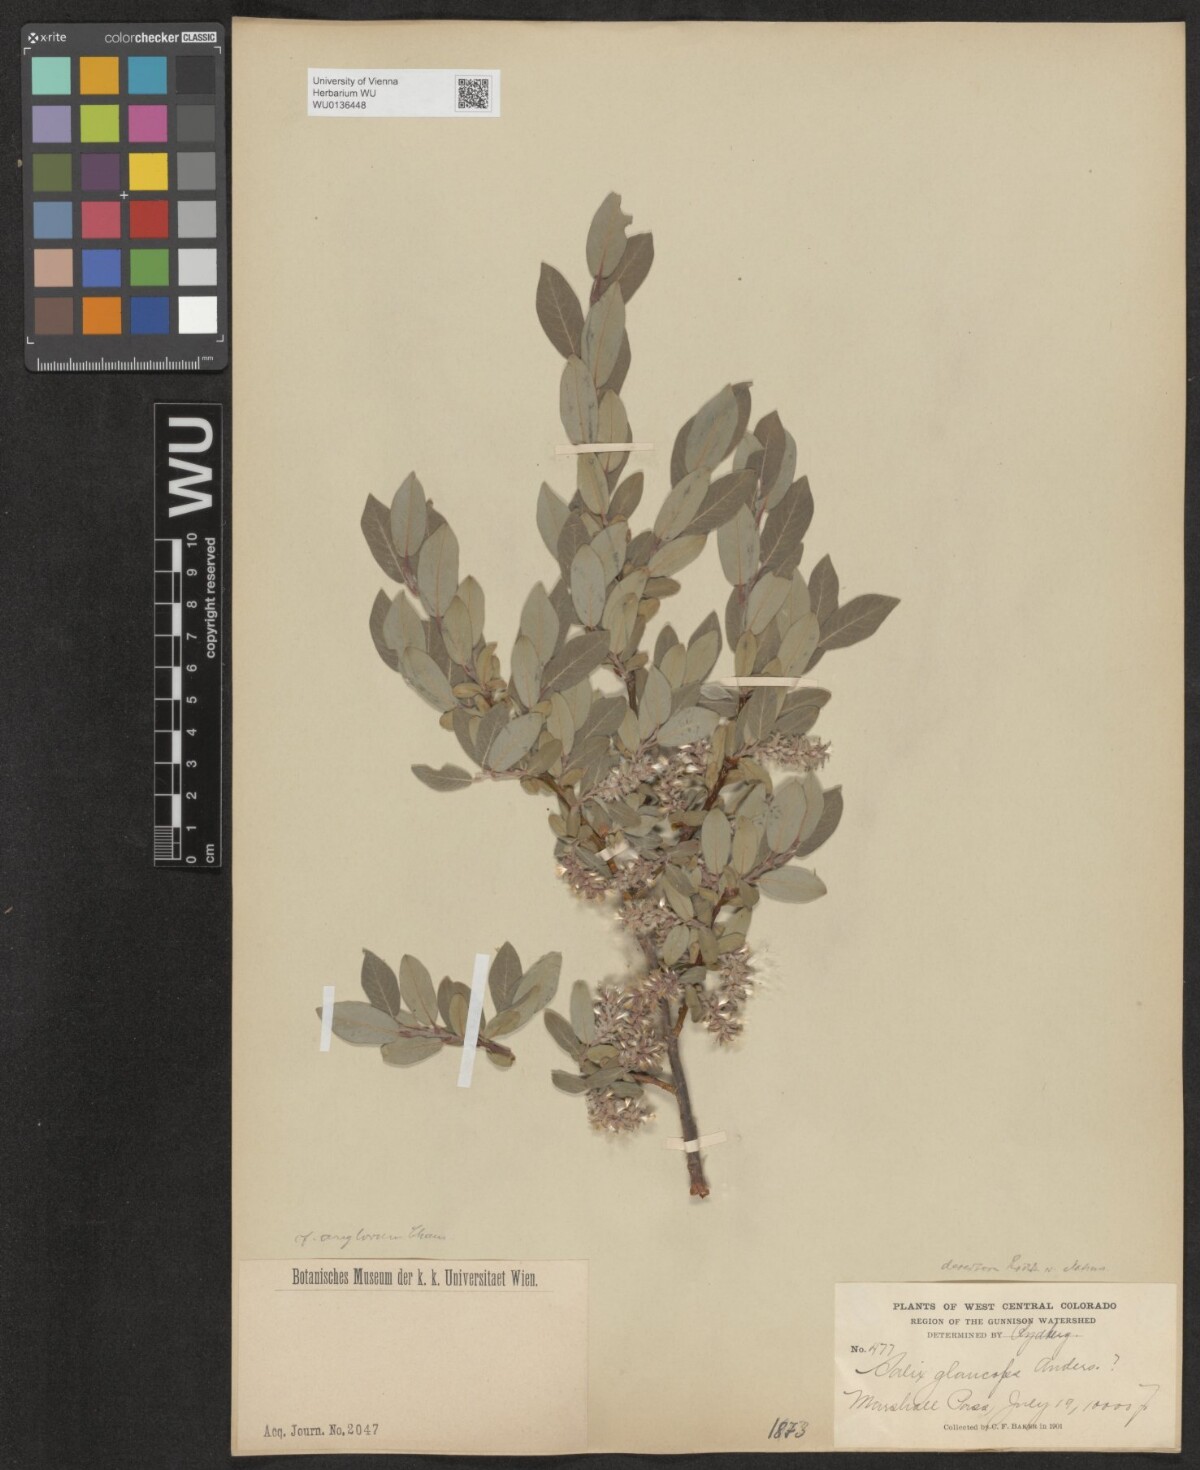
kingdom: Plantae
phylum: Tracheophyta
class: Magnoliopsida
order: Malpighiales
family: Salicaceae
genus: Salix
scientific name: Salix glauca
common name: Glaucous willow
